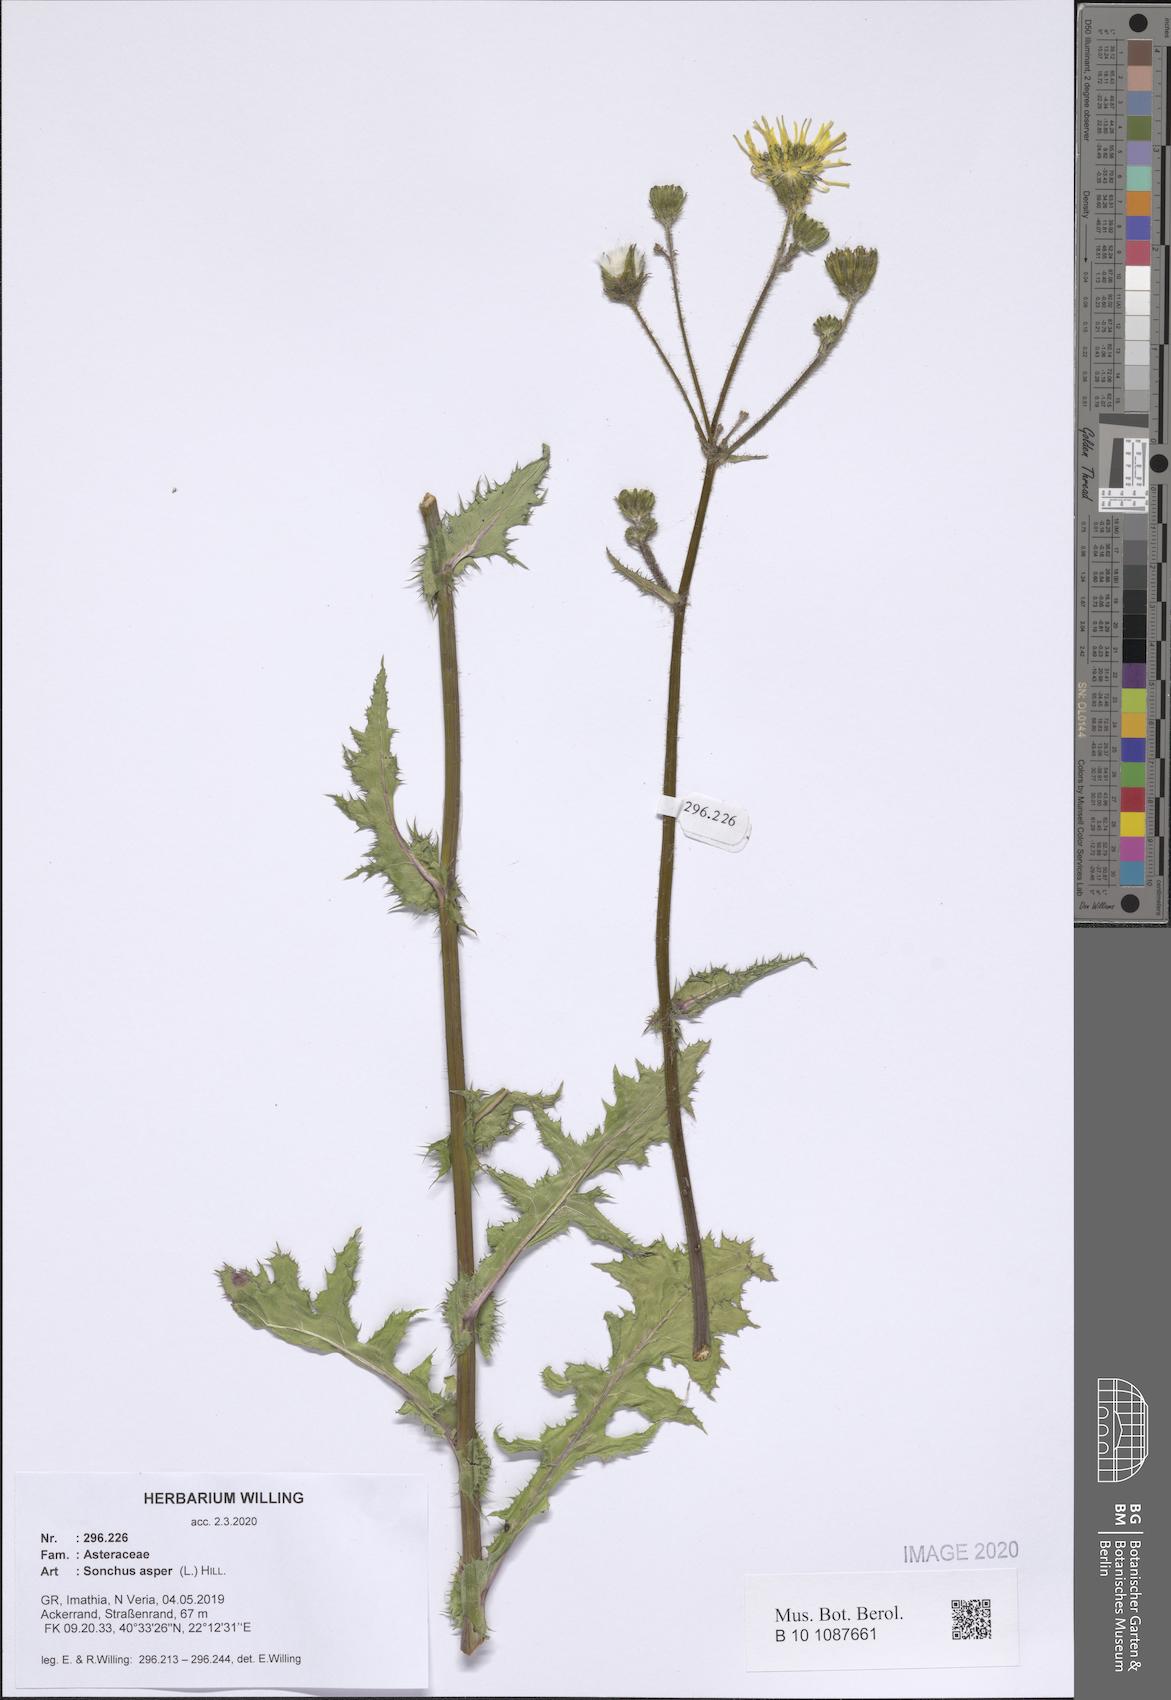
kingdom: Plantae
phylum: Tracheophyta
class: Magnoliopsida
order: Asterales
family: Asteraceae
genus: Sonchus
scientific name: Sonchus asper
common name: Prickly sow-thistle
